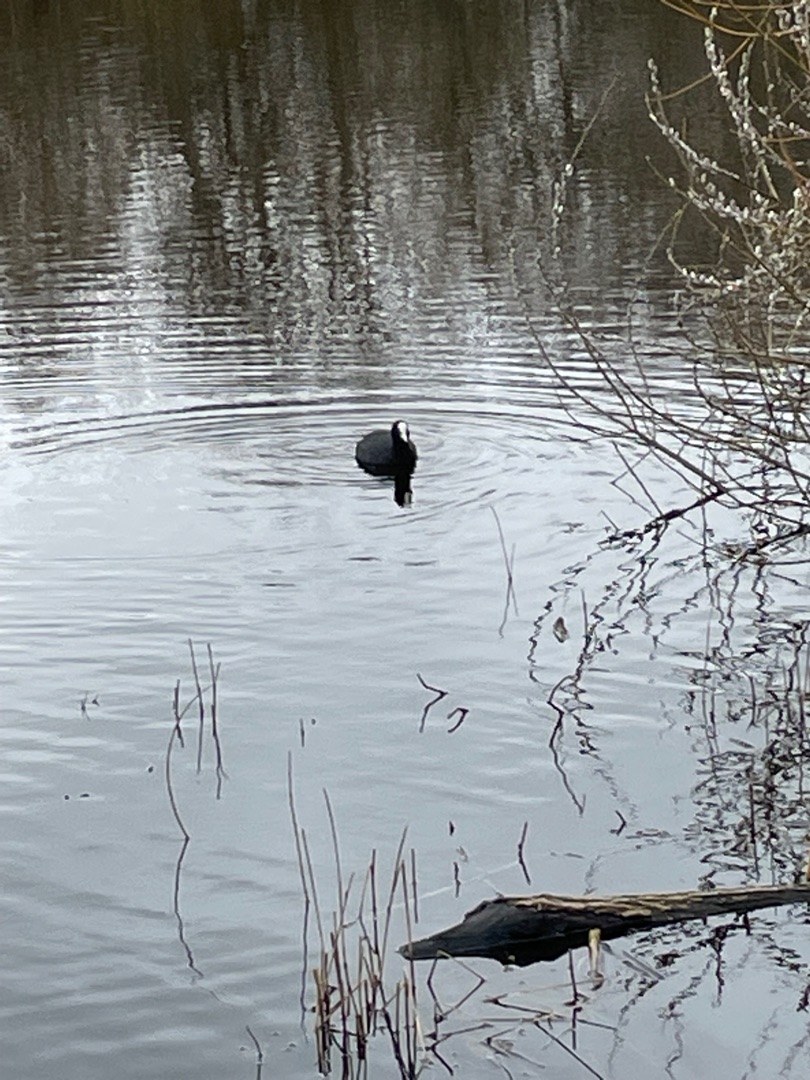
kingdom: Animalia
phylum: Chordata
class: Aves
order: Gruiformes
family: Rallidae
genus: Fulica
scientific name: Fulica atra
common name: Blishøne
